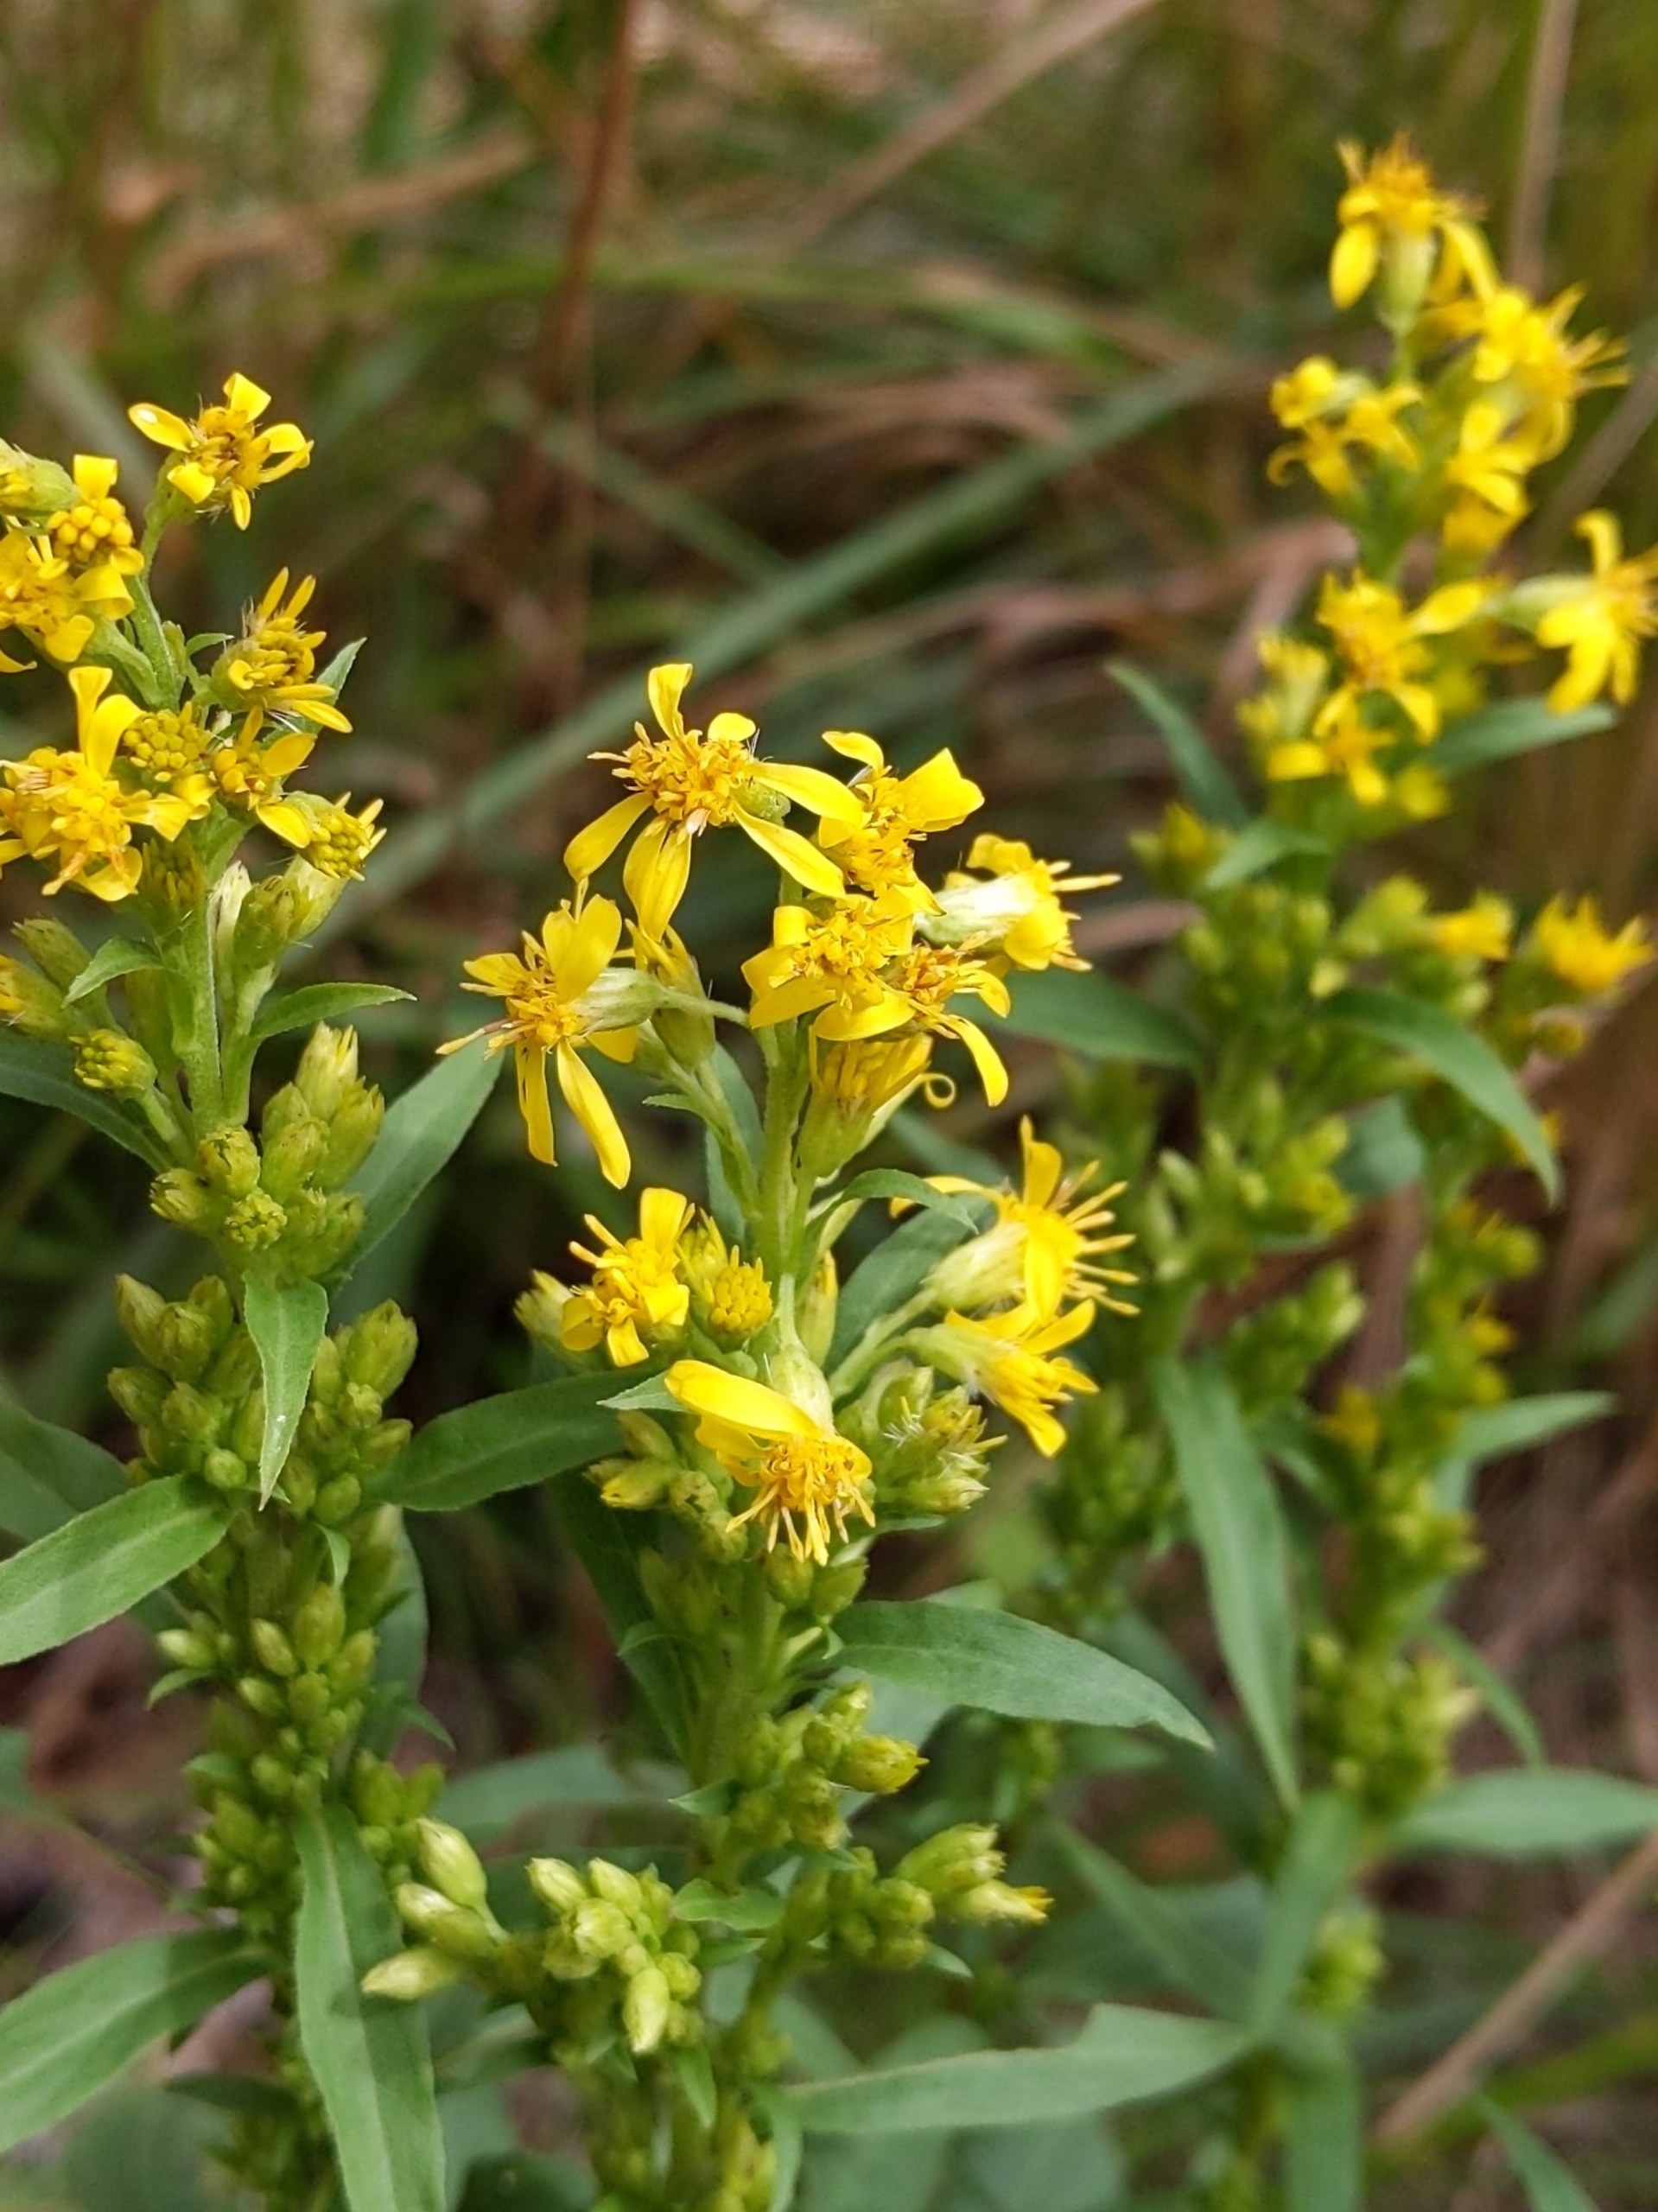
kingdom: Plantae
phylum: Tracheophyta
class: Magnoliopsida
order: Asterales
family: Asteraceae
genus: Solidago
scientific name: Solidago virgaurea
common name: Almindelig gyldenris
